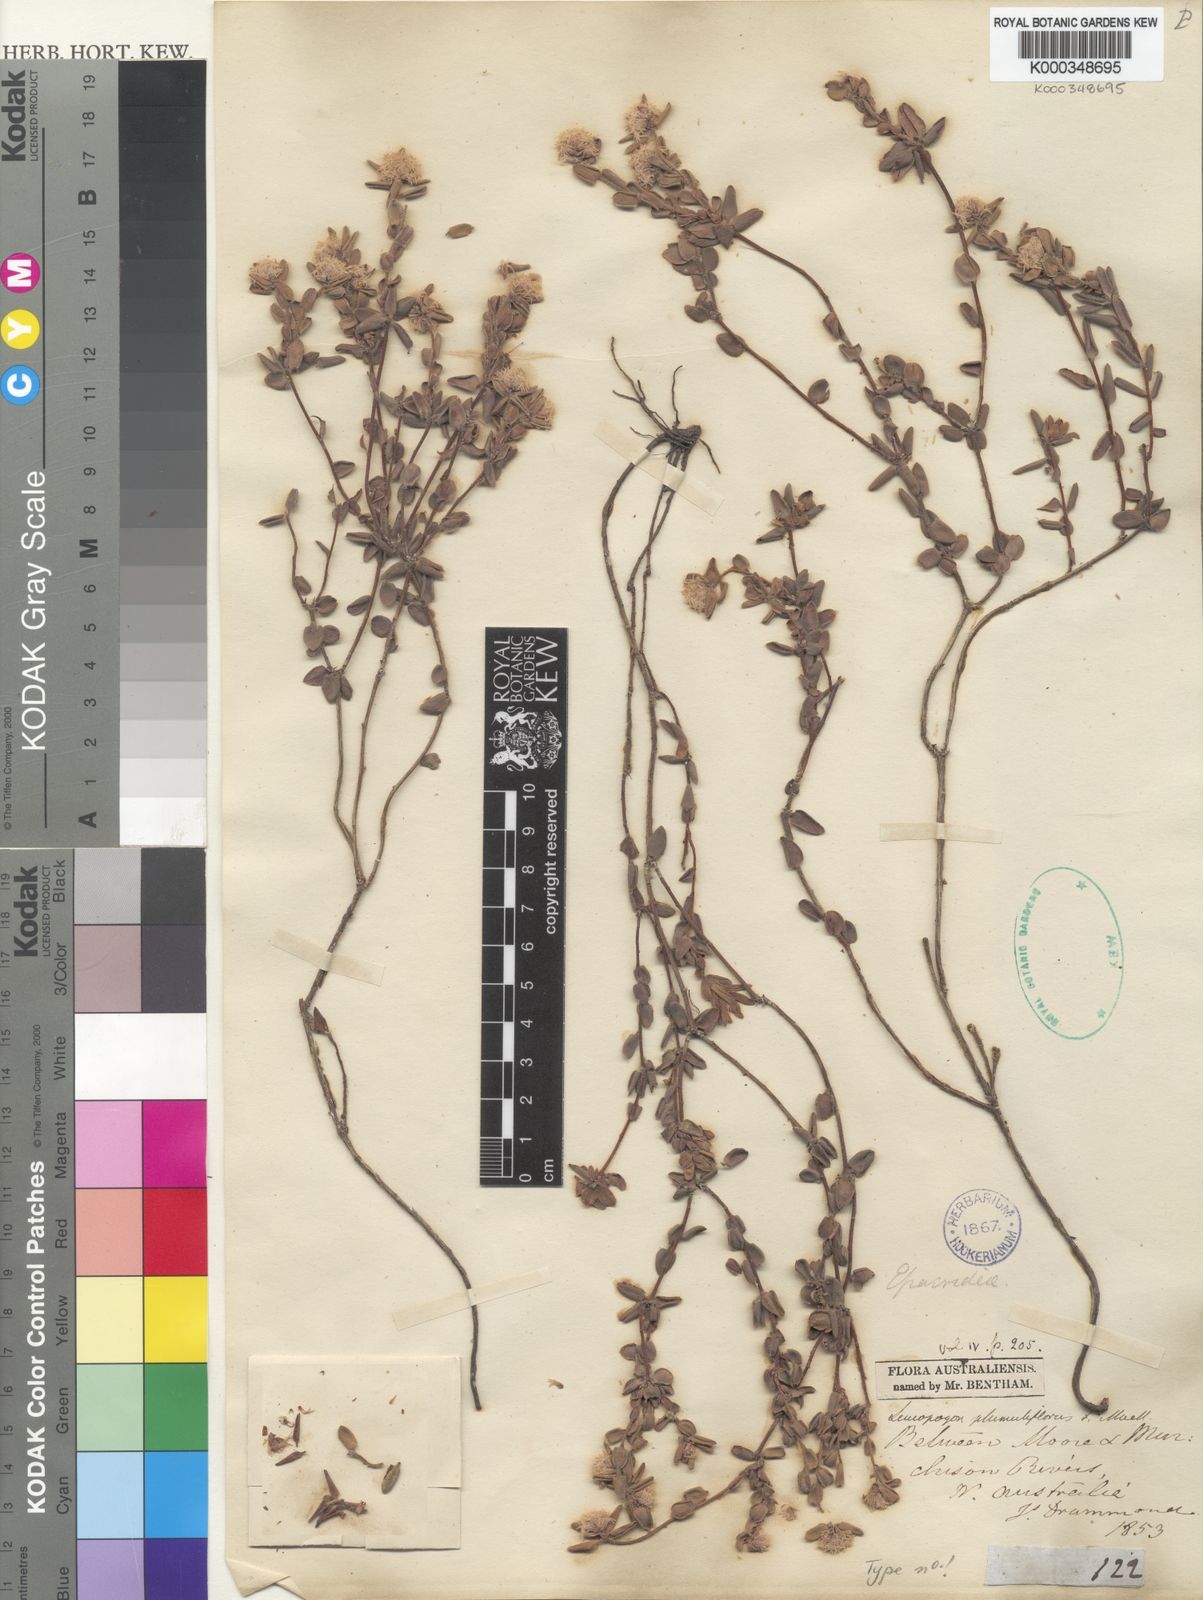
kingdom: Plantae
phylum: Tracheophyta
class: Magnoliopsida
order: Ericales
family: Ericaceae
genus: Leucopogon
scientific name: Leucopogon
